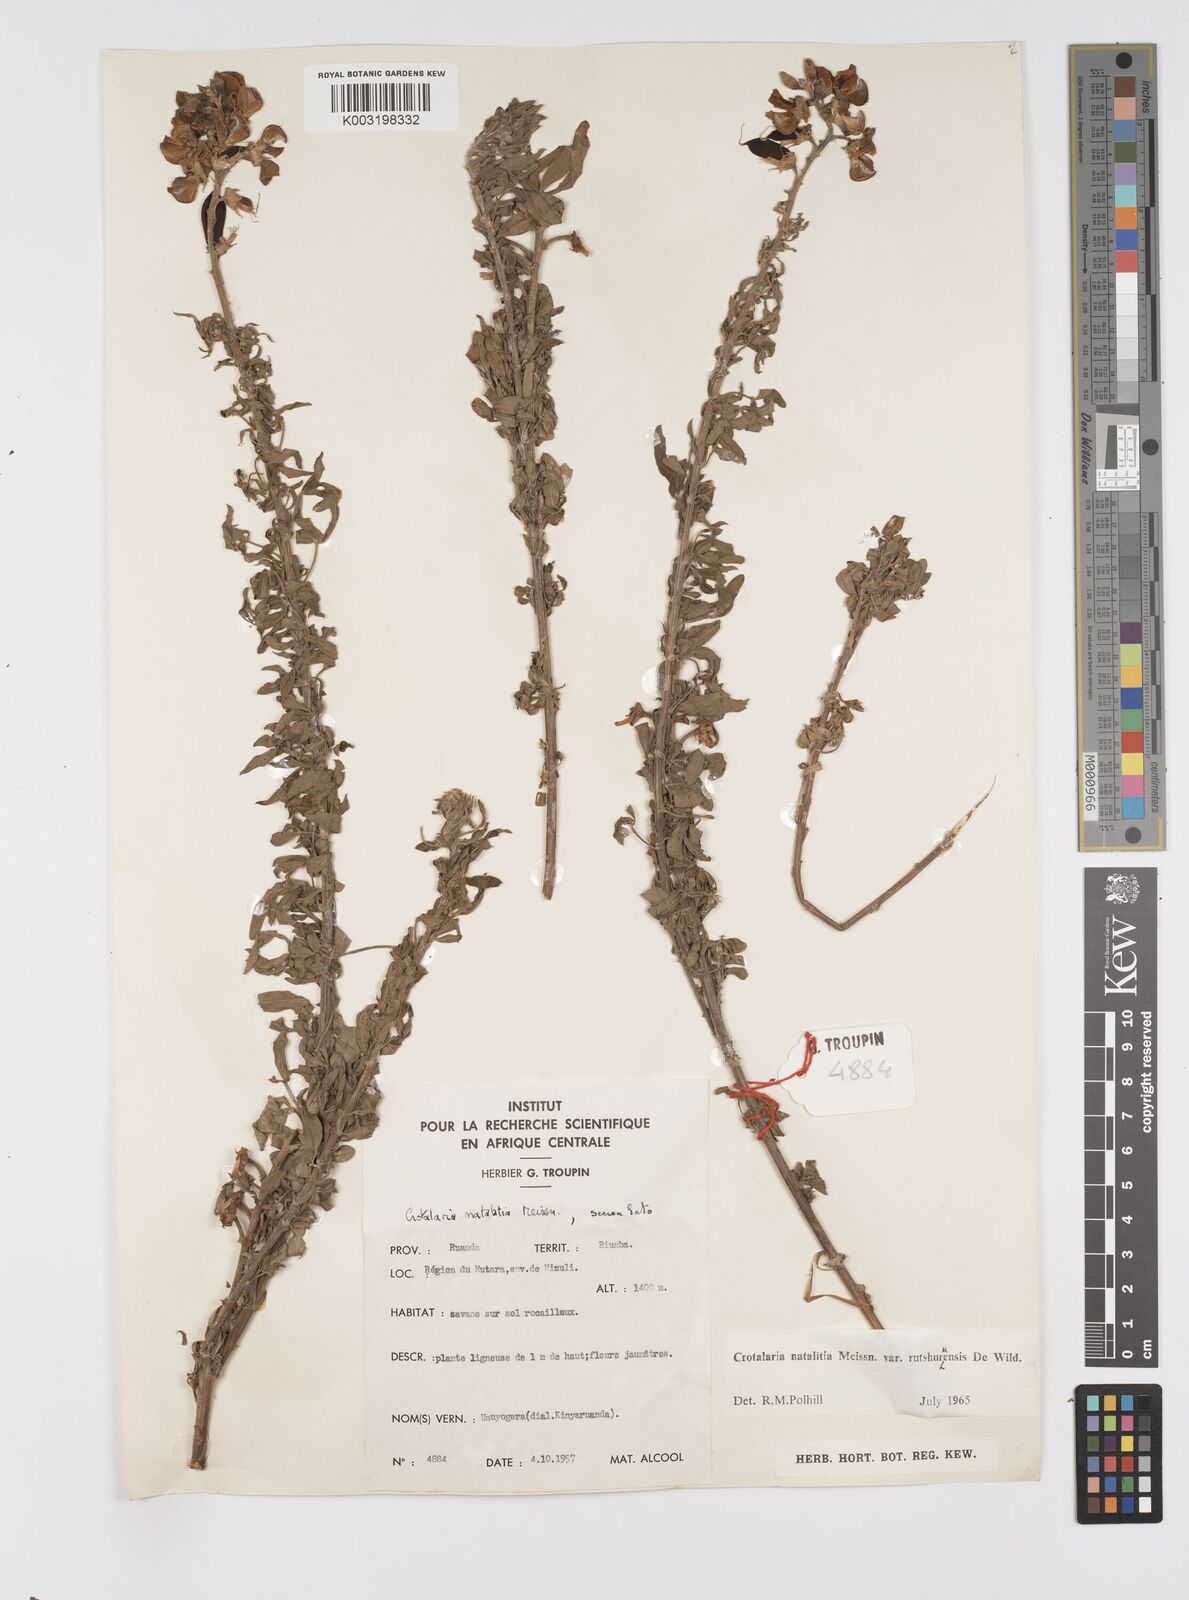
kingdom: Plantae
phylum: Tracheophyta
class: Magnoliopsida
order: Fabales
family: Fabaceae
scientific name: Fabaceae
